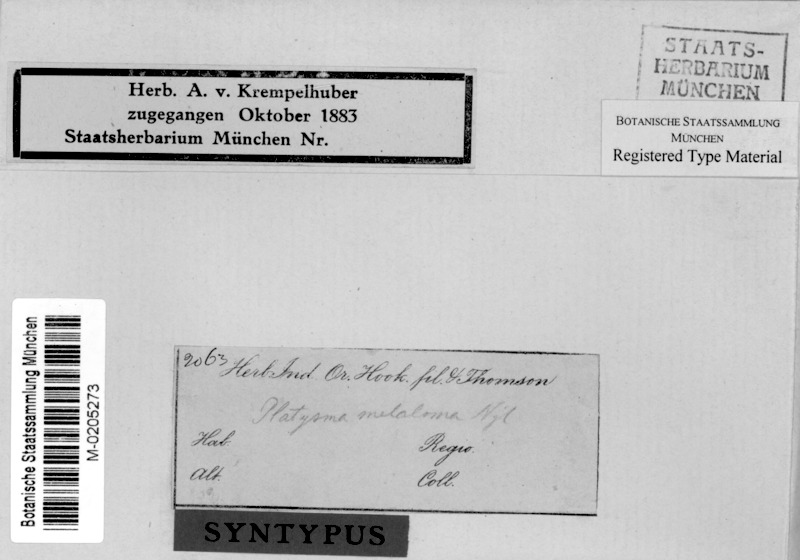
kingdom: Fungi
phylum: Ascomycota
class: Lecanoromycetes
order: Lecanorales
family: Parmeliaceae
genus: Nephromopsis
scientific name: Nephromopsis melaloma
